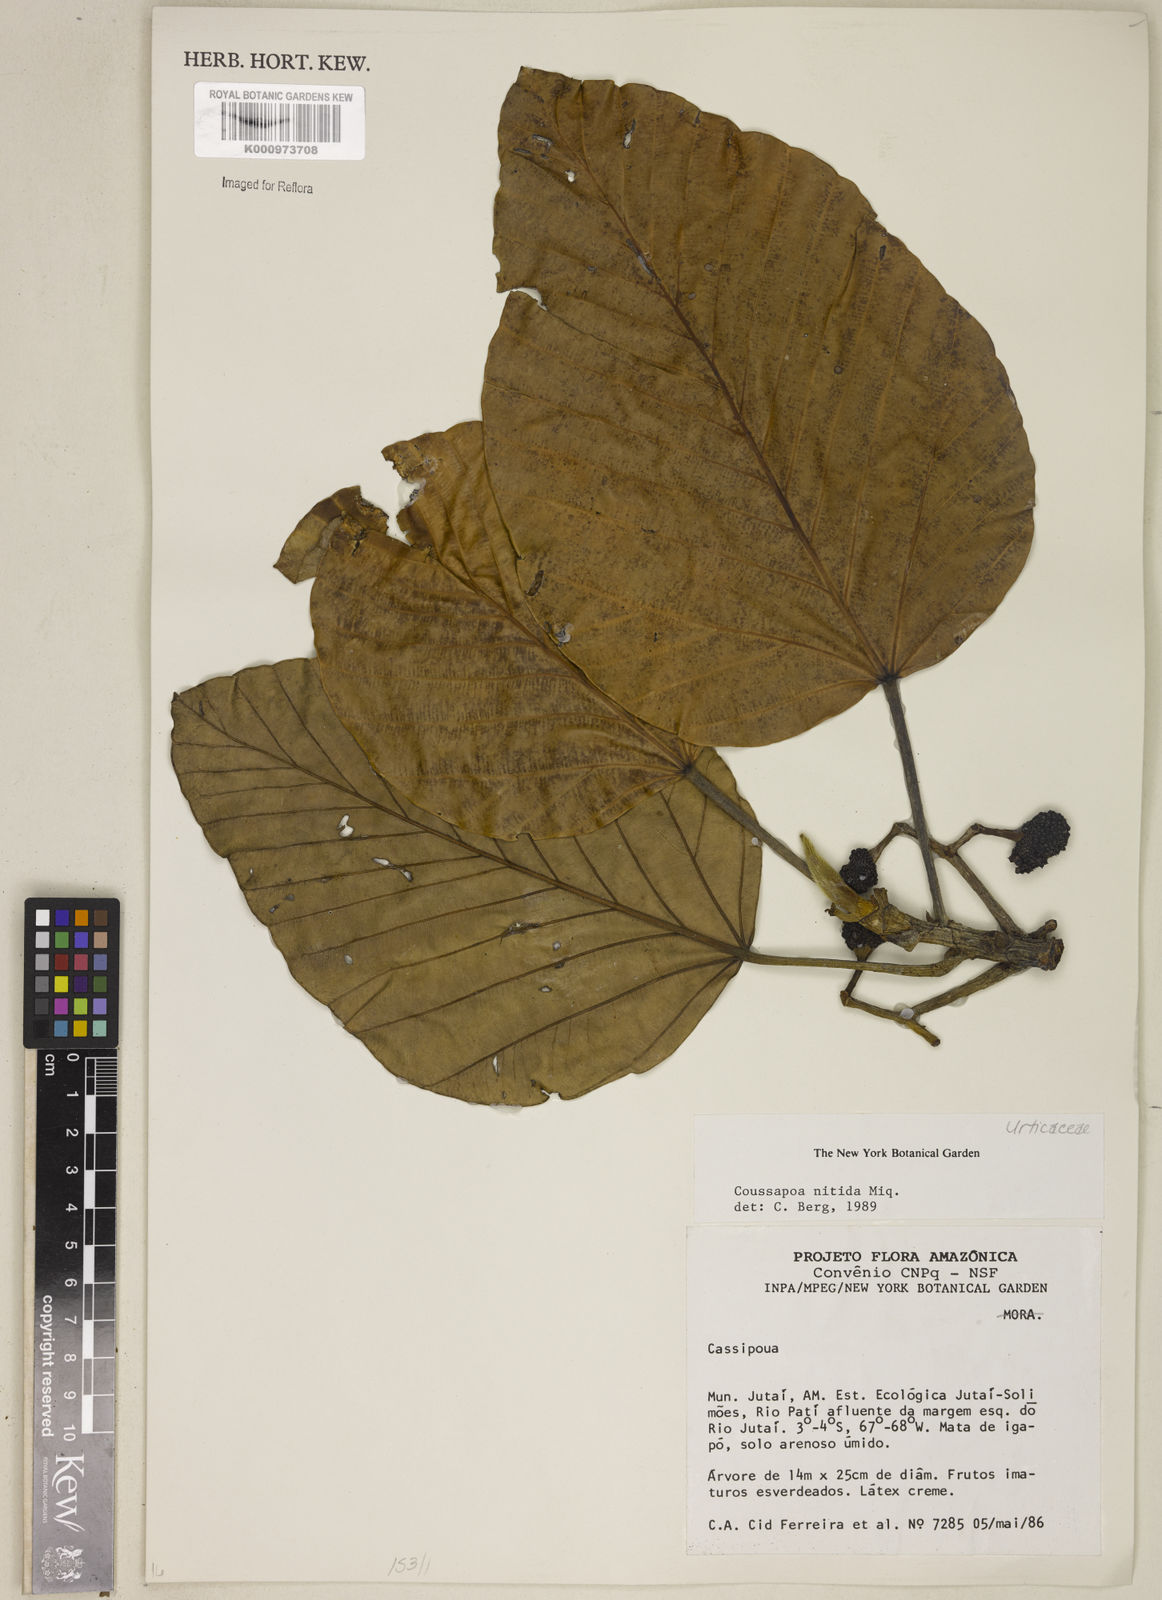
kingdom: Plantae
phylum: Tracheophyta
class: Magnoliopsida
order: Rosales
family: Urticaceae
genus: Coussapoa
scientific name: Coussapoa nitida
